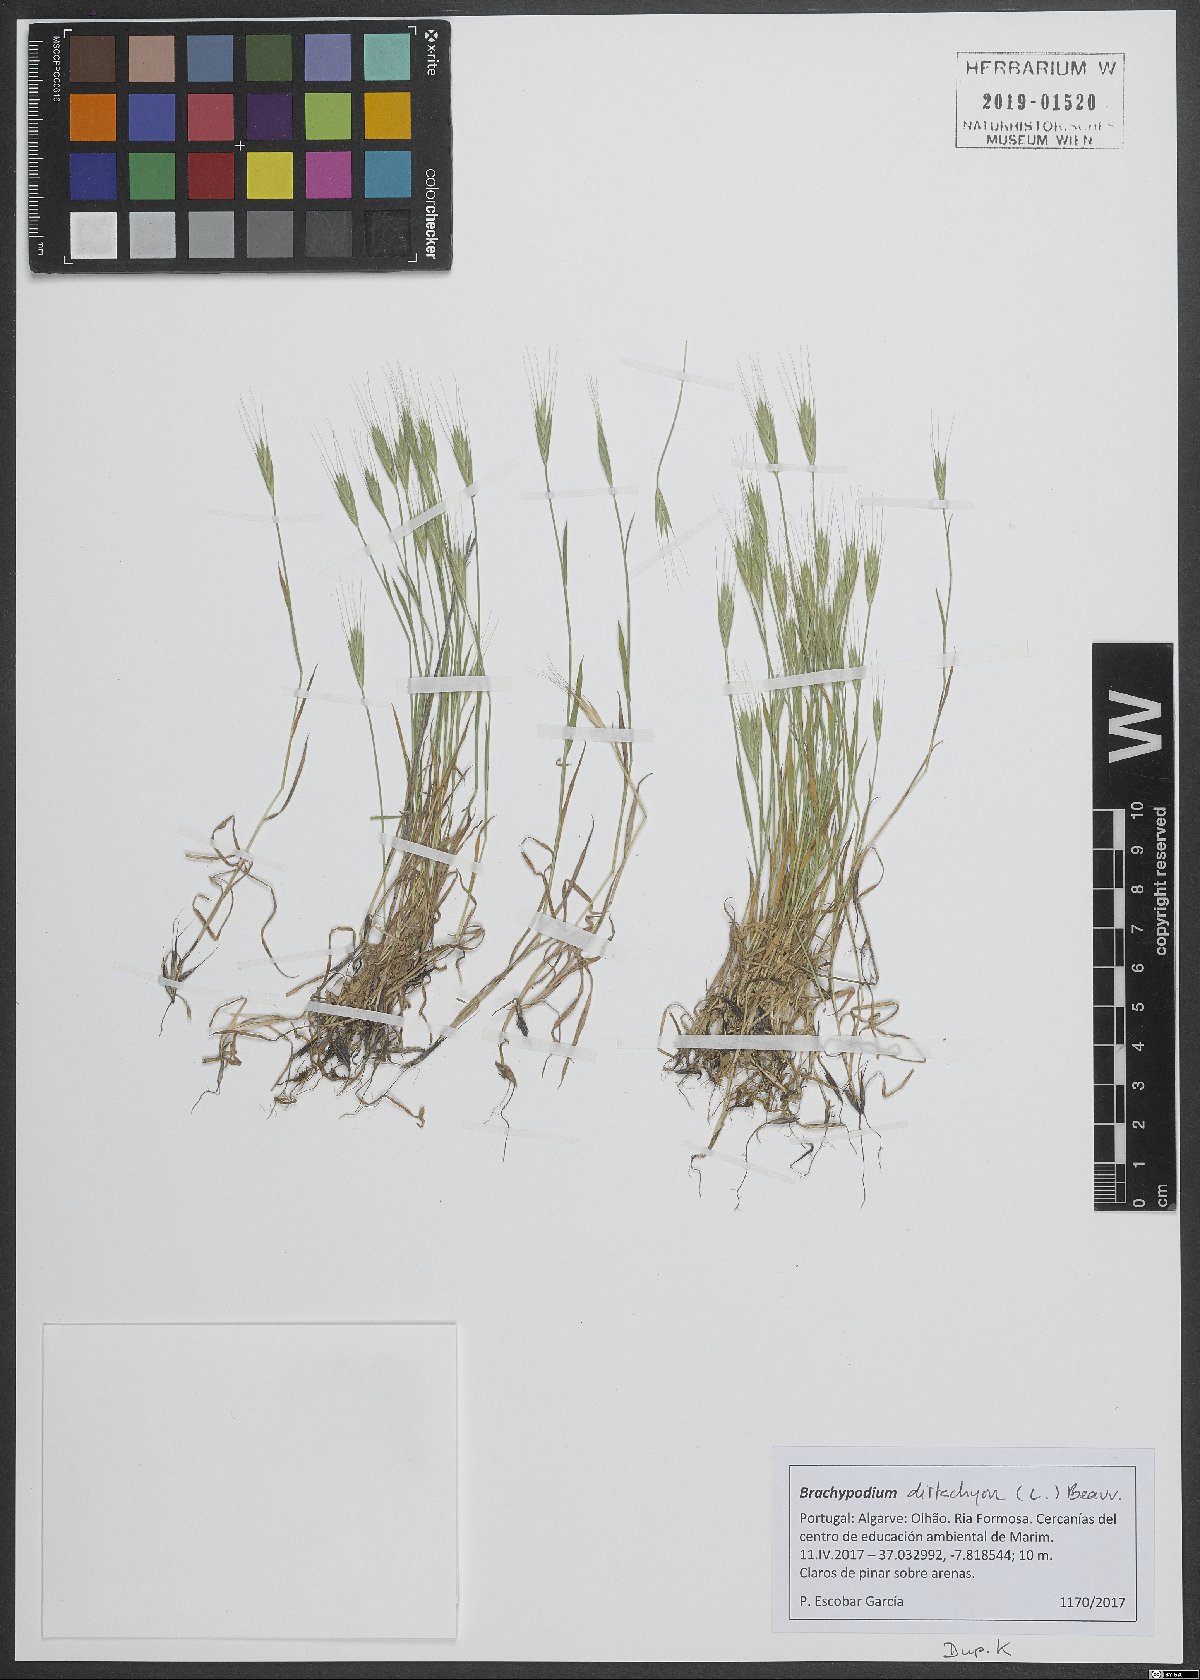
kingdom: Plantae
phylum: Tracheophyta
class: Liliopsida
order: Poales
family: Poaceae
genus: Brachypodium
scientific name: Brachypodium distachyon
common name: Stiff brome
